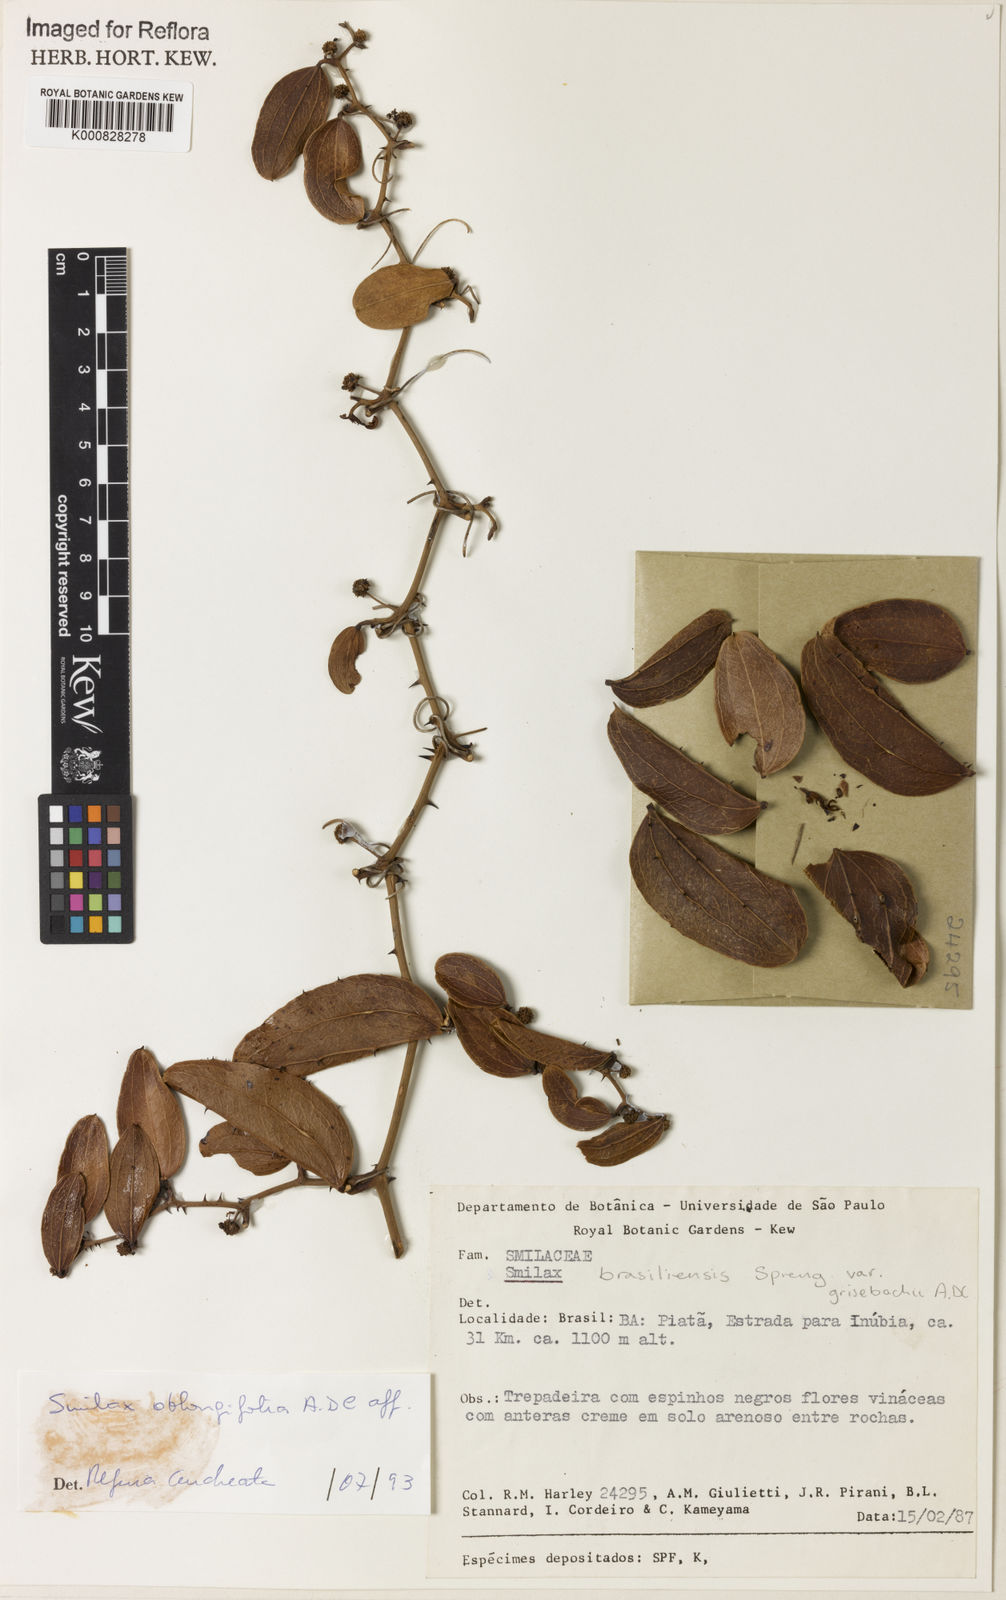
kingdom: Plantae
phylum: Tracheophyta
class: Liliopsida
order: Liliales
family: Smilacaceae
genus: Smilax
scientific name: Smilax oblongifolia
